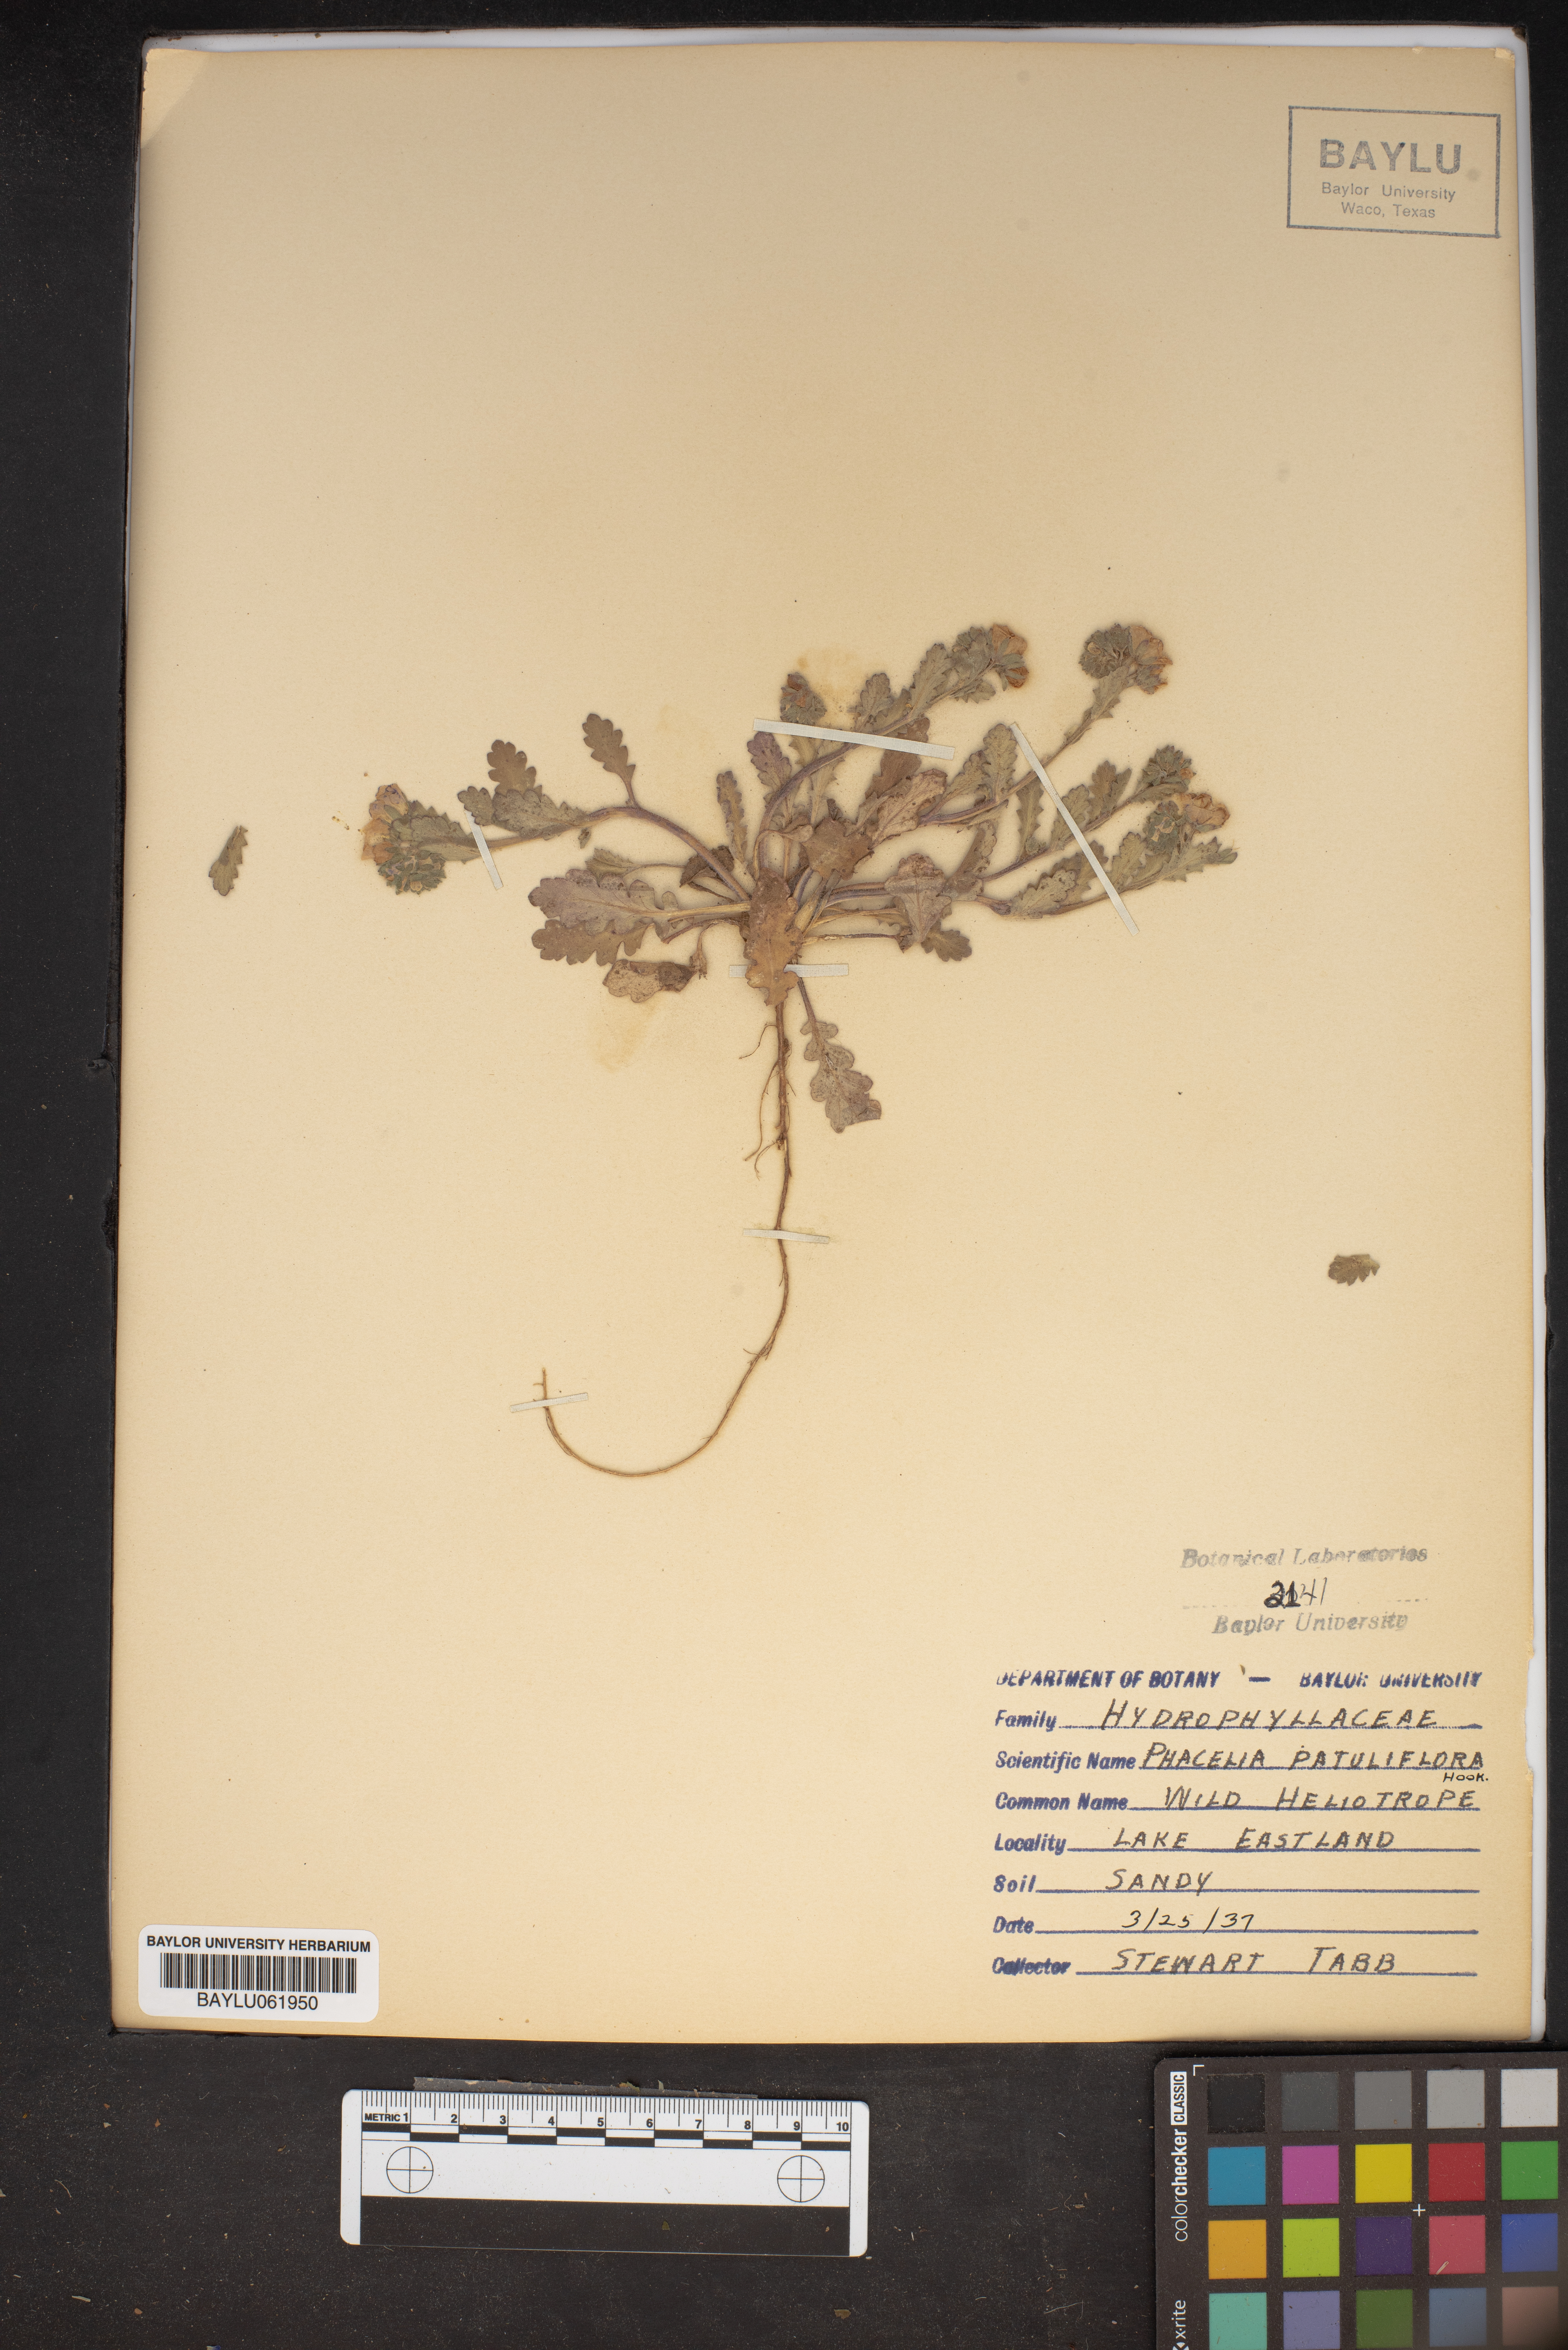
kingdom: Plantae
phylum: Tracheophyta
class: Magnoliopsida
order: Boraginales
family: Hydrophyllaceae
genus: Phacelia
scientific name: Phacelia patuliflora
